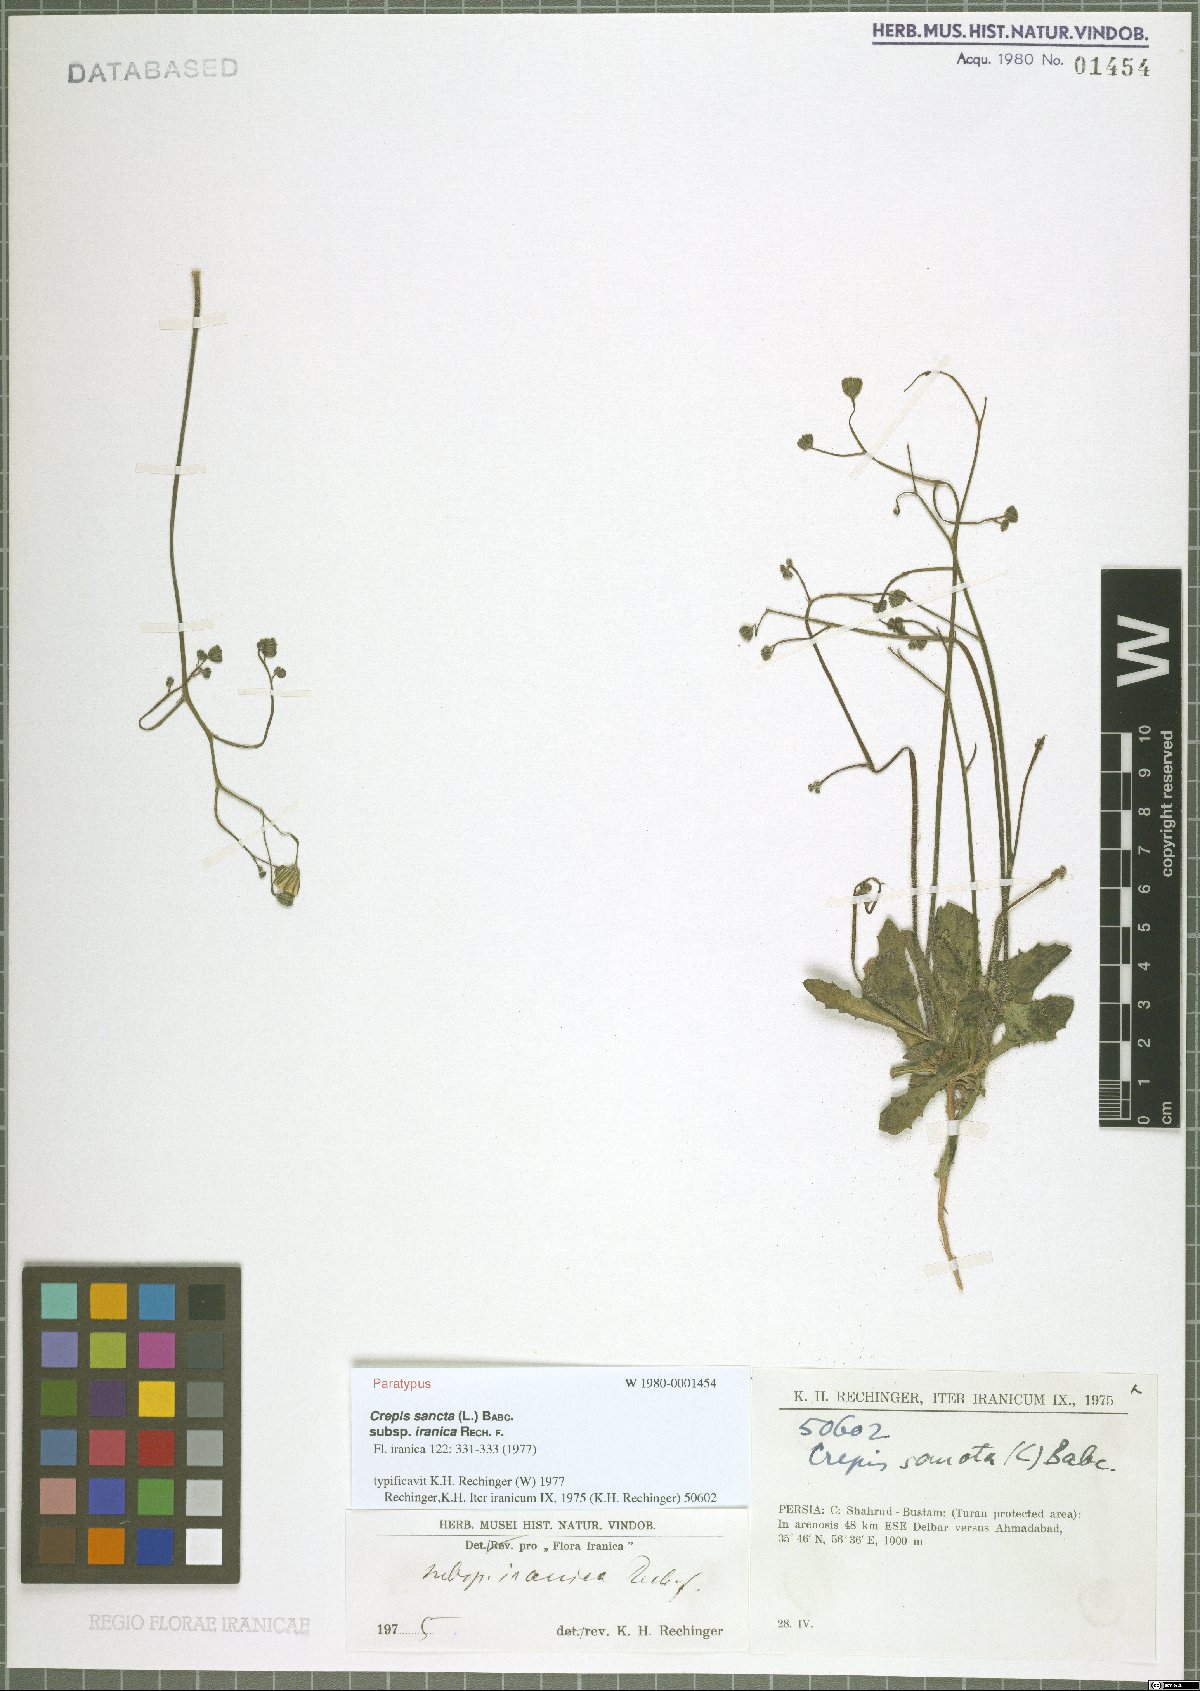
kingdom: Plantae
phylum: Tracheophyta
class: Magnoliopsida
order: Asterales
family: Asteraceae
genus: Crepis
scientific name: Crepis sancta
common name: Hawk's-beard
